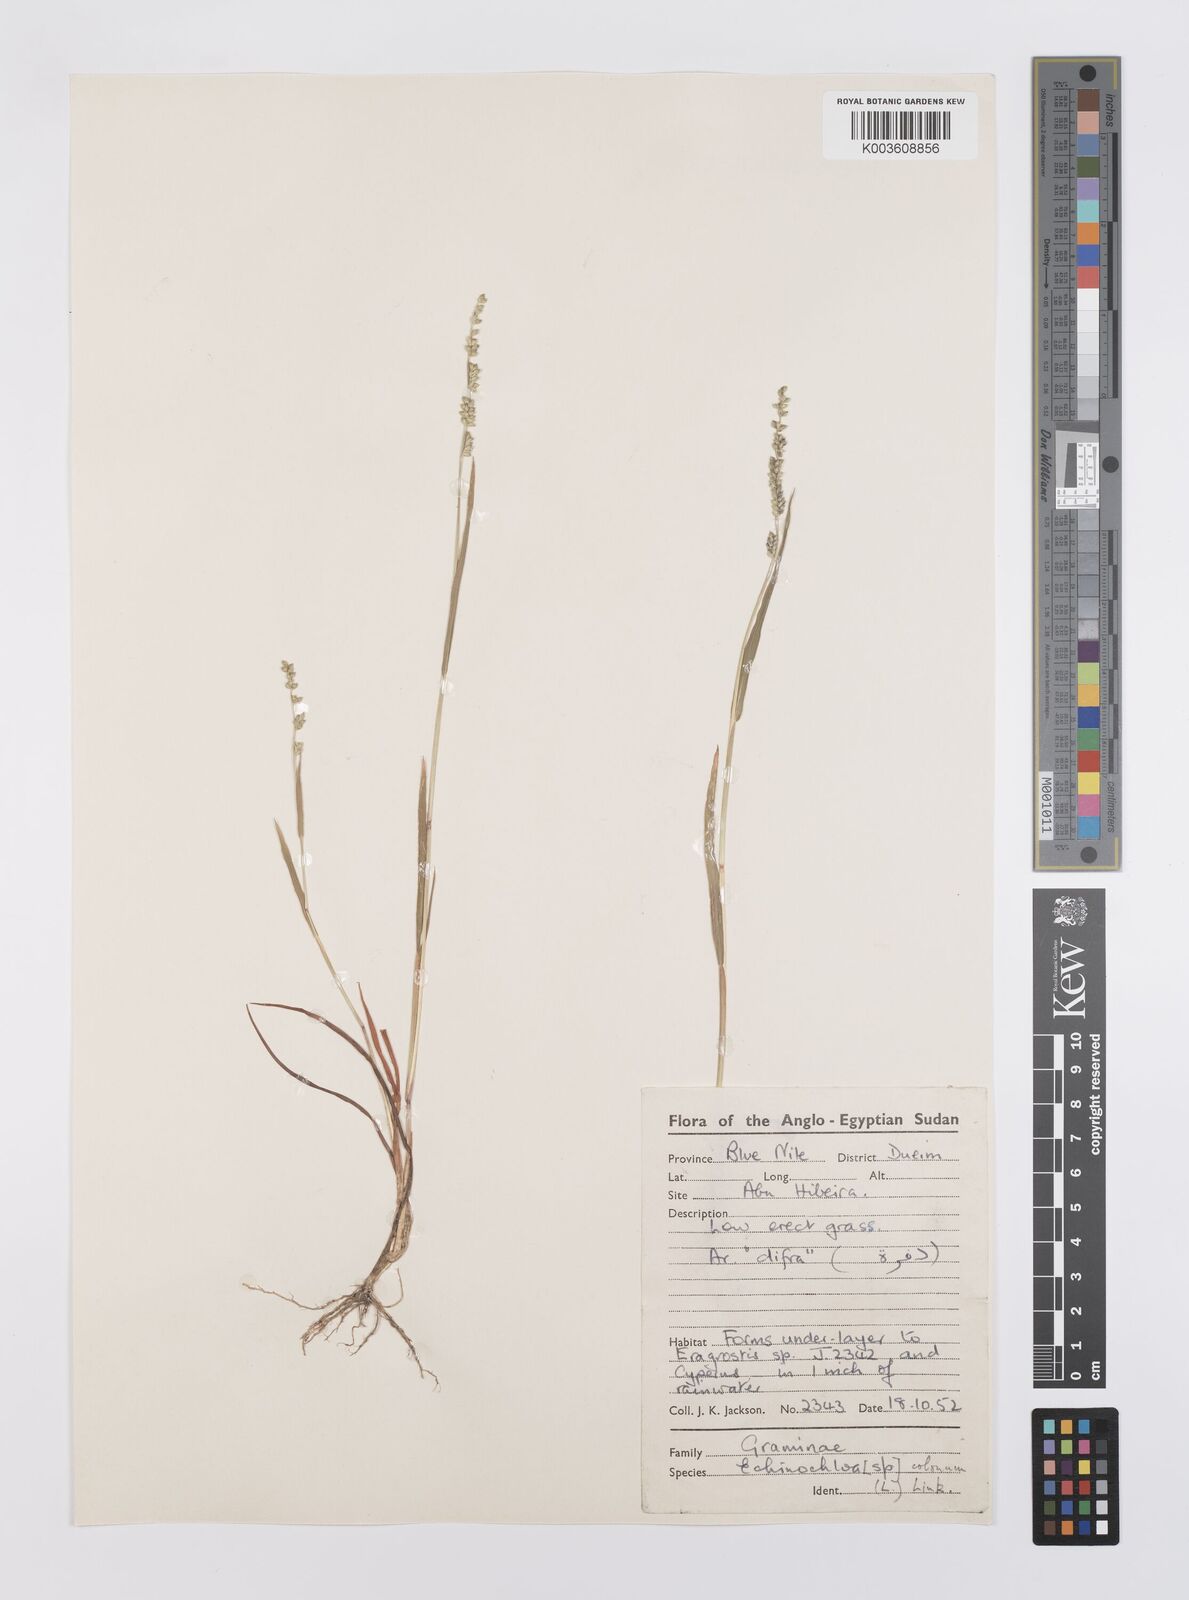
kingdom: Plantae
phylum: Tracheophyta
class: Liliopsida
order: Poales
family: Poaceae
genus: Echinochloa
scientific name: Echinochloa colonum
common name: Jungle rice
